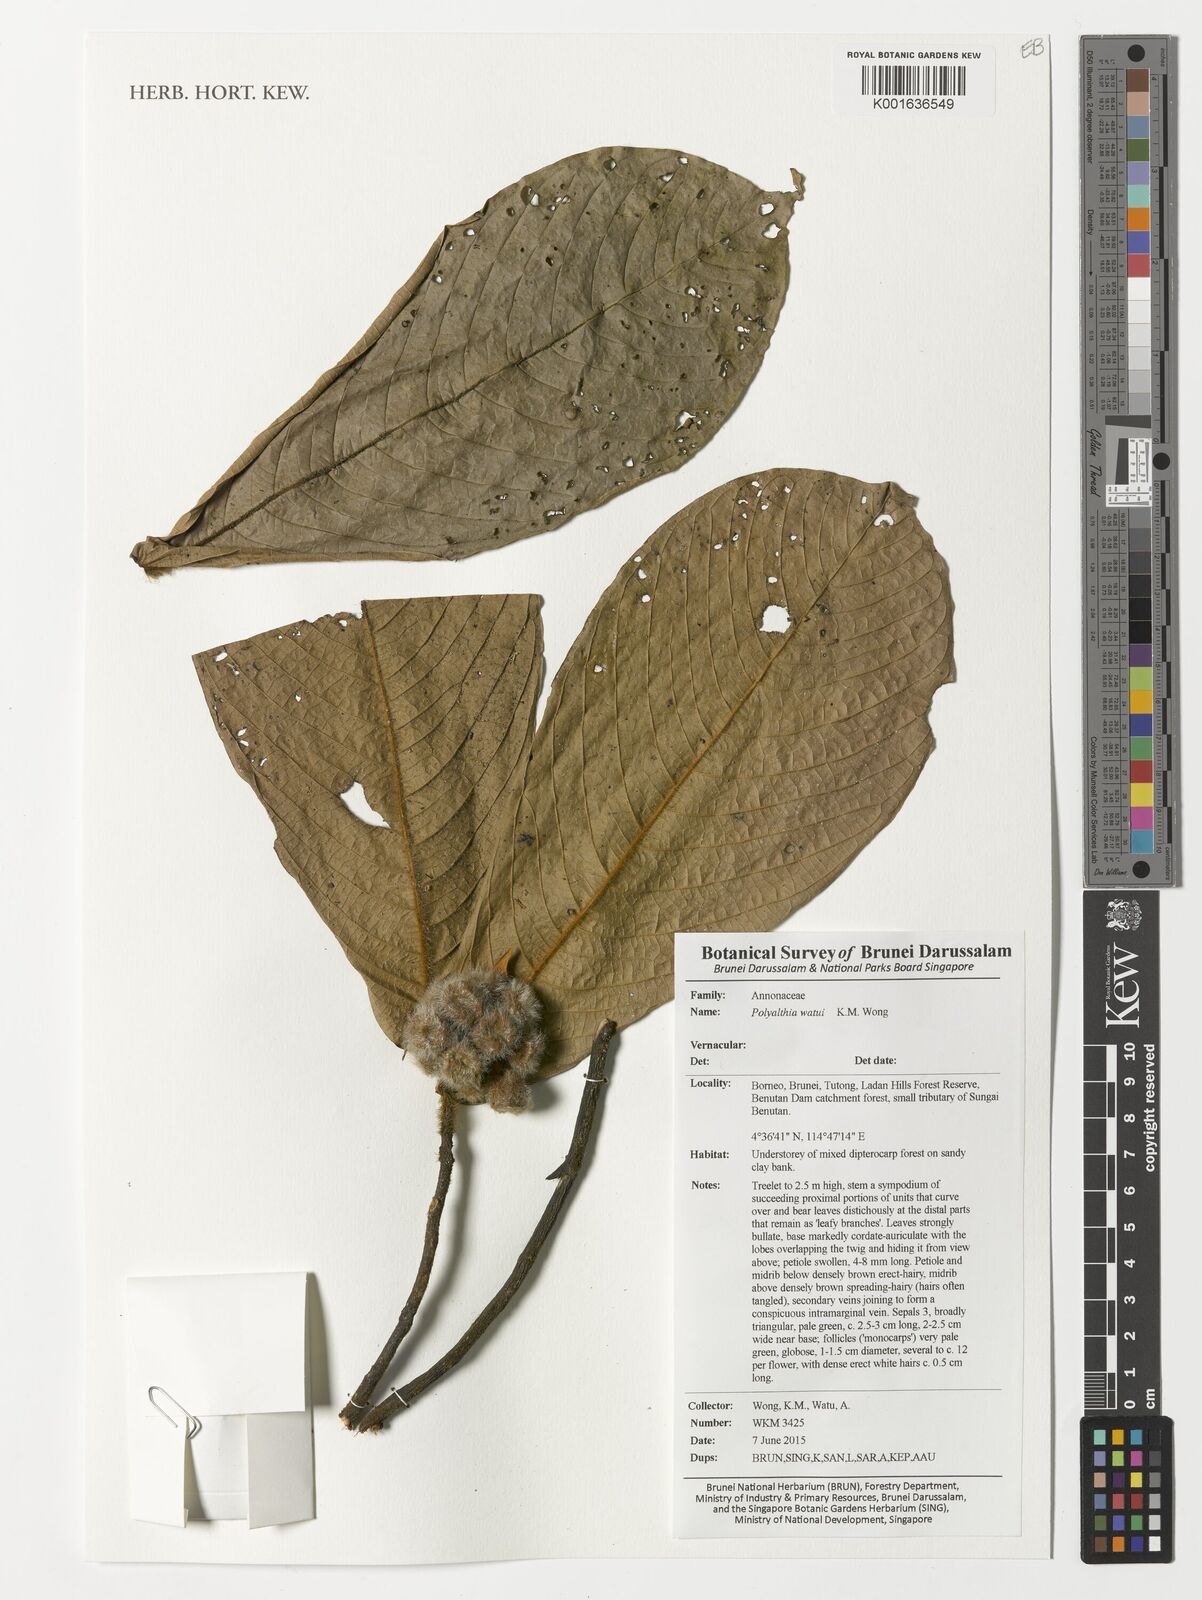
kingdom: Plantae
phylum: Tracheophyta
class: Magnoliopsida
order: Magnoliales
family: Annonaceae
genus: Polyalthia
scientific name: Polyalthia watui
